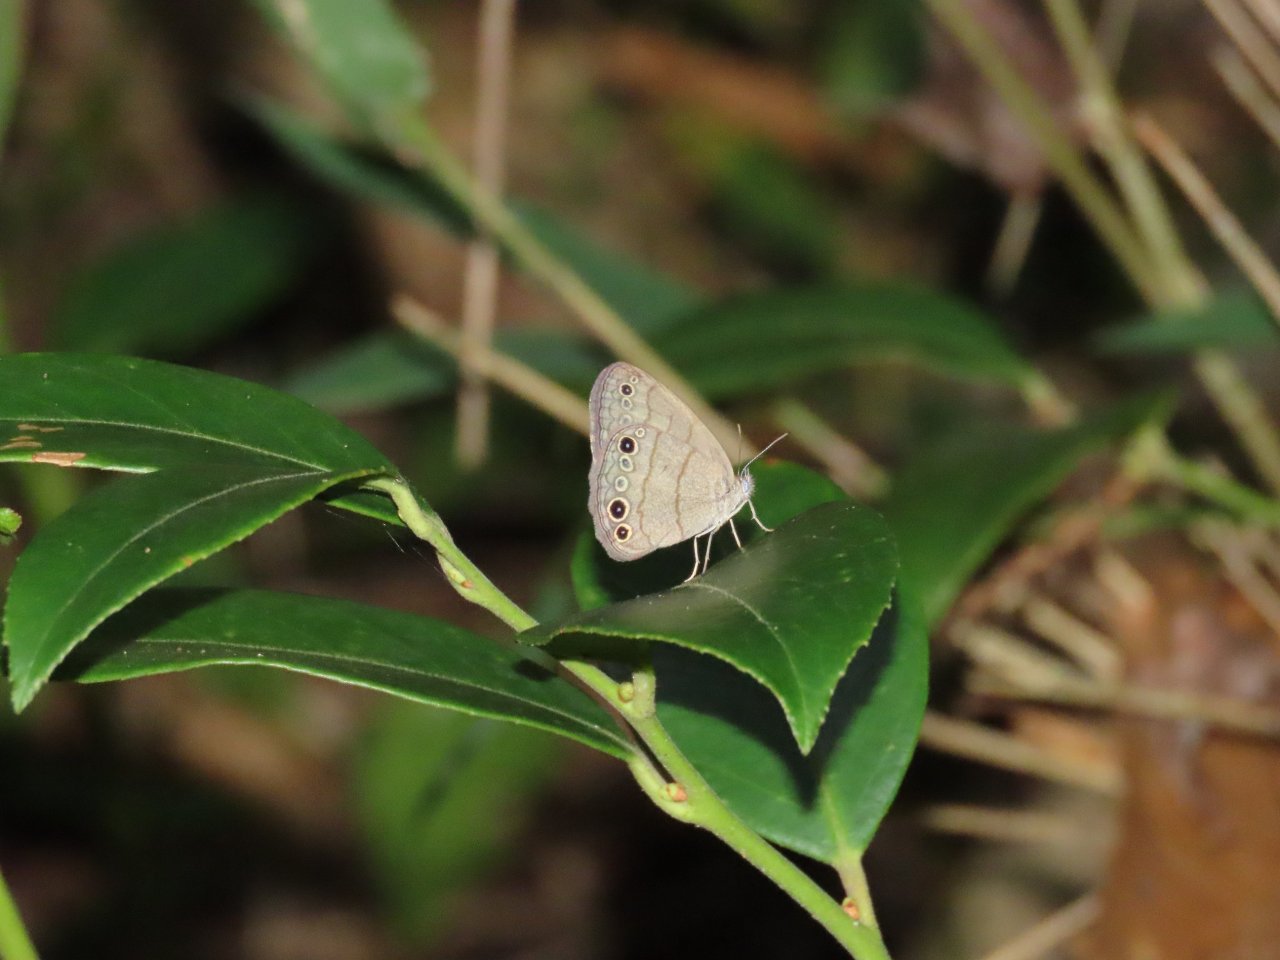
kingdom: Animalia
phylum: Arthropoda
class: Insecta
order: Lepidoptera
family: Nymphalidae
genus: Hermeuptychia
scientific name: Hermeuptychia intricata
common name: Intricate Satyr
